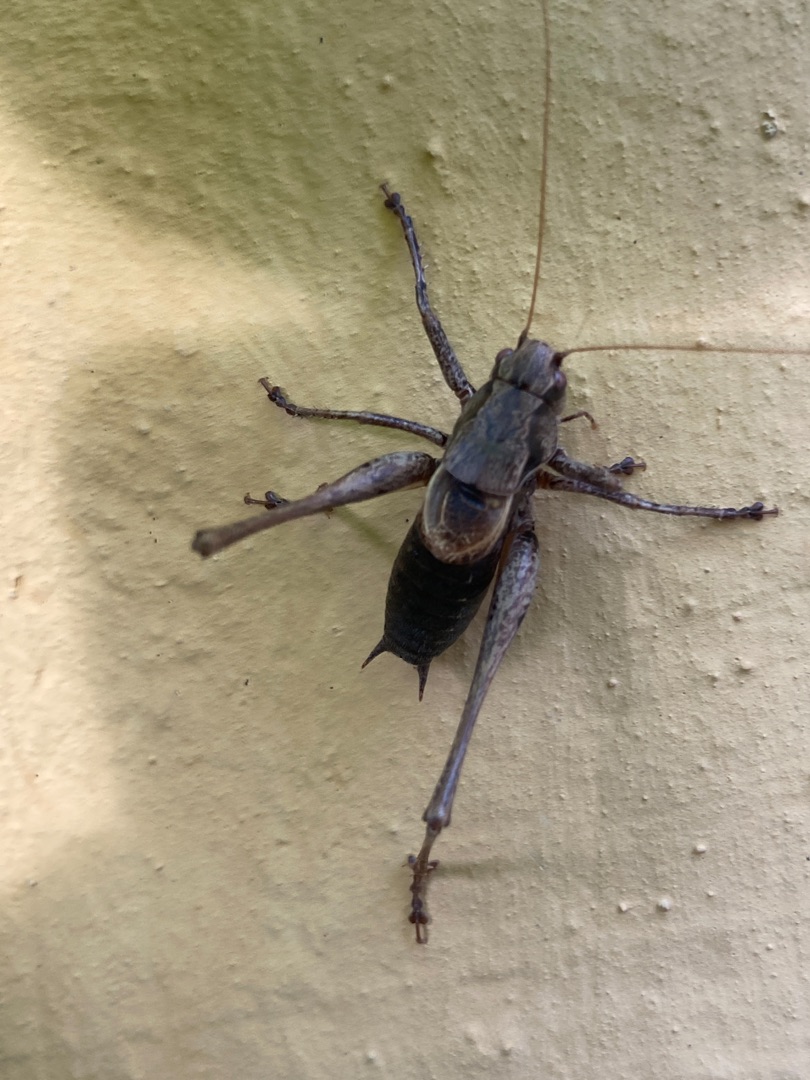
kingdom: Animalia
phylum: Arthropoda
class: Insecta
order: Orthoptera
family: Tettigoniidae
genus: Pholidoptera
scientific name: Pholidoptera griseoaptera
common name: Buskgræshoppe
